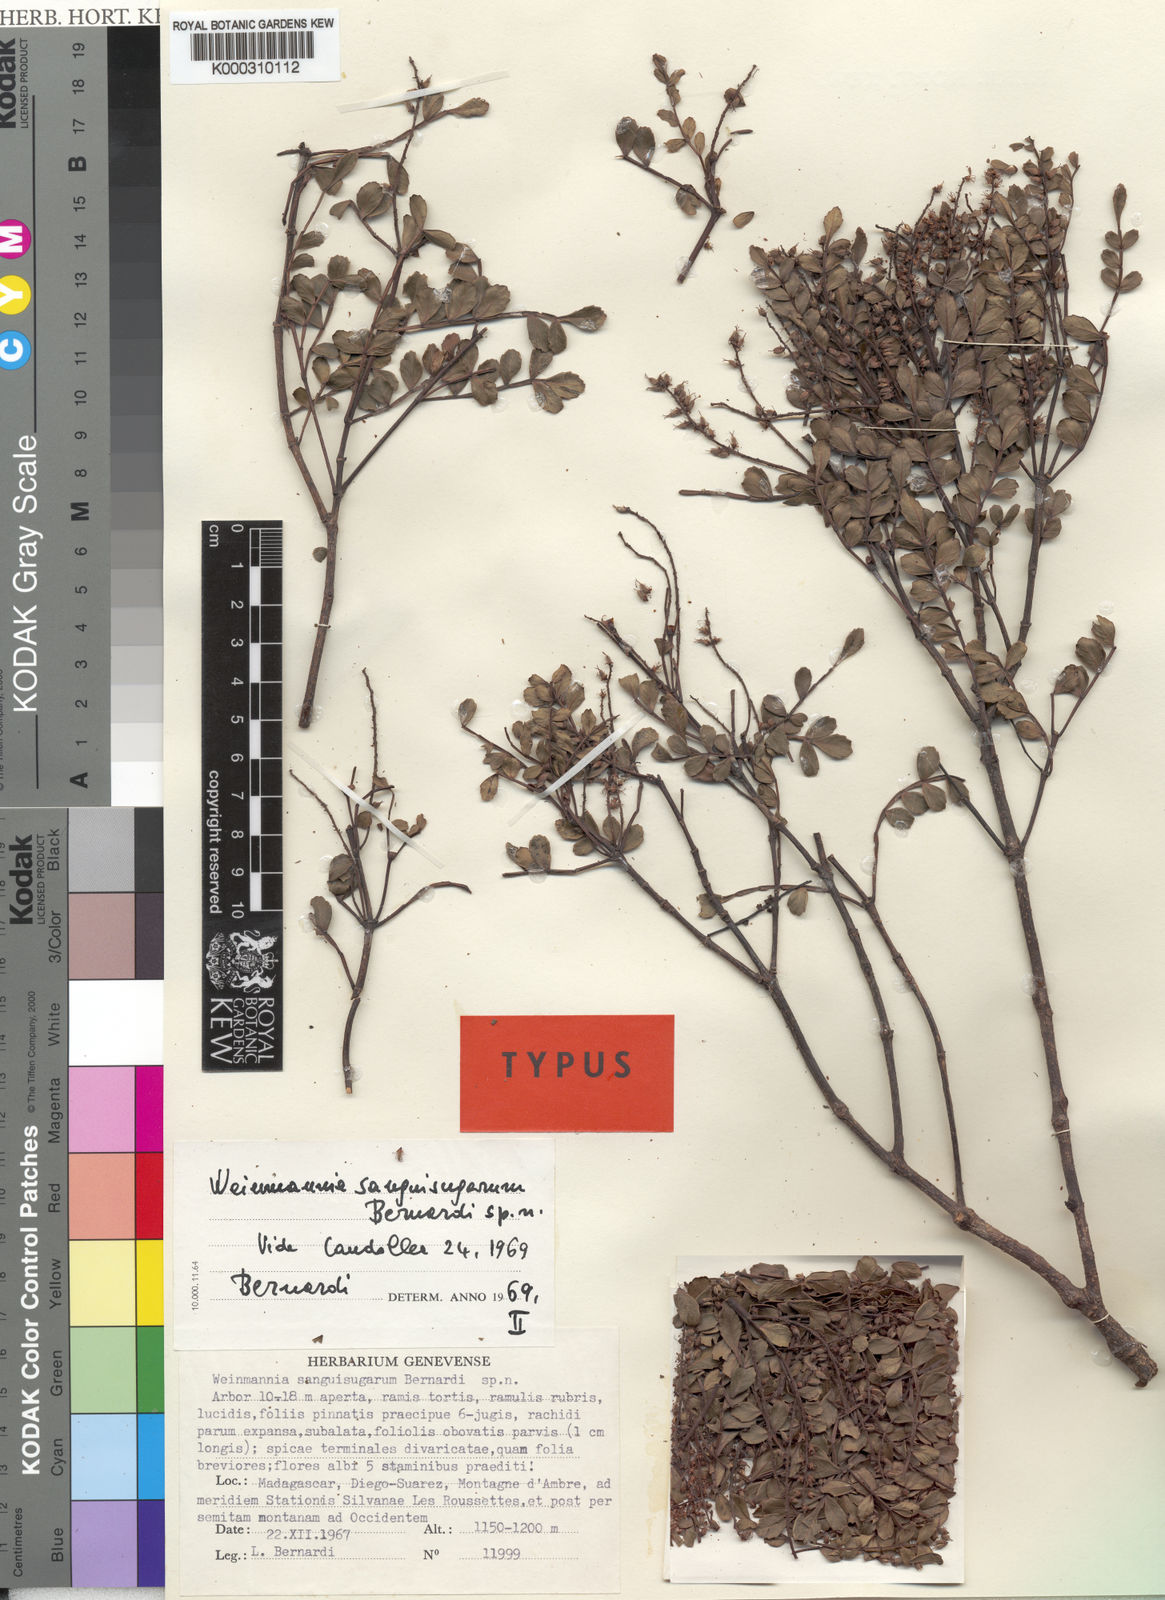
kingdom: Plantae
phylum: Tracheophyta
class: Magnoliopsida
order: Oxalidales
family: Cunoniaceae
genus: Pterophylla
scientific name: Pterophylla sanguisugarum
